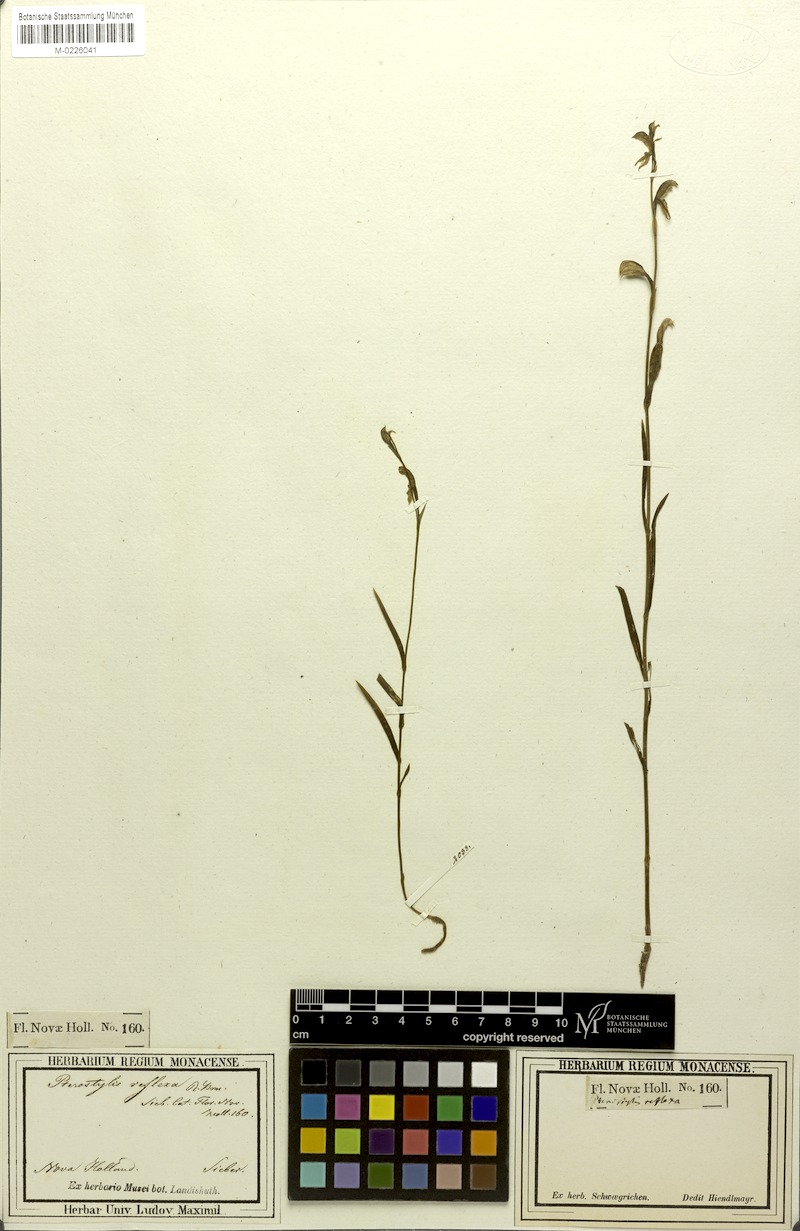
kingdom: Plantae
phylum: Tracheophyta
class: Liliopsida
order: Asparagales
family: Orchidaceae
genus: Pterostylis
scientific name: Pterostylis longifolia
